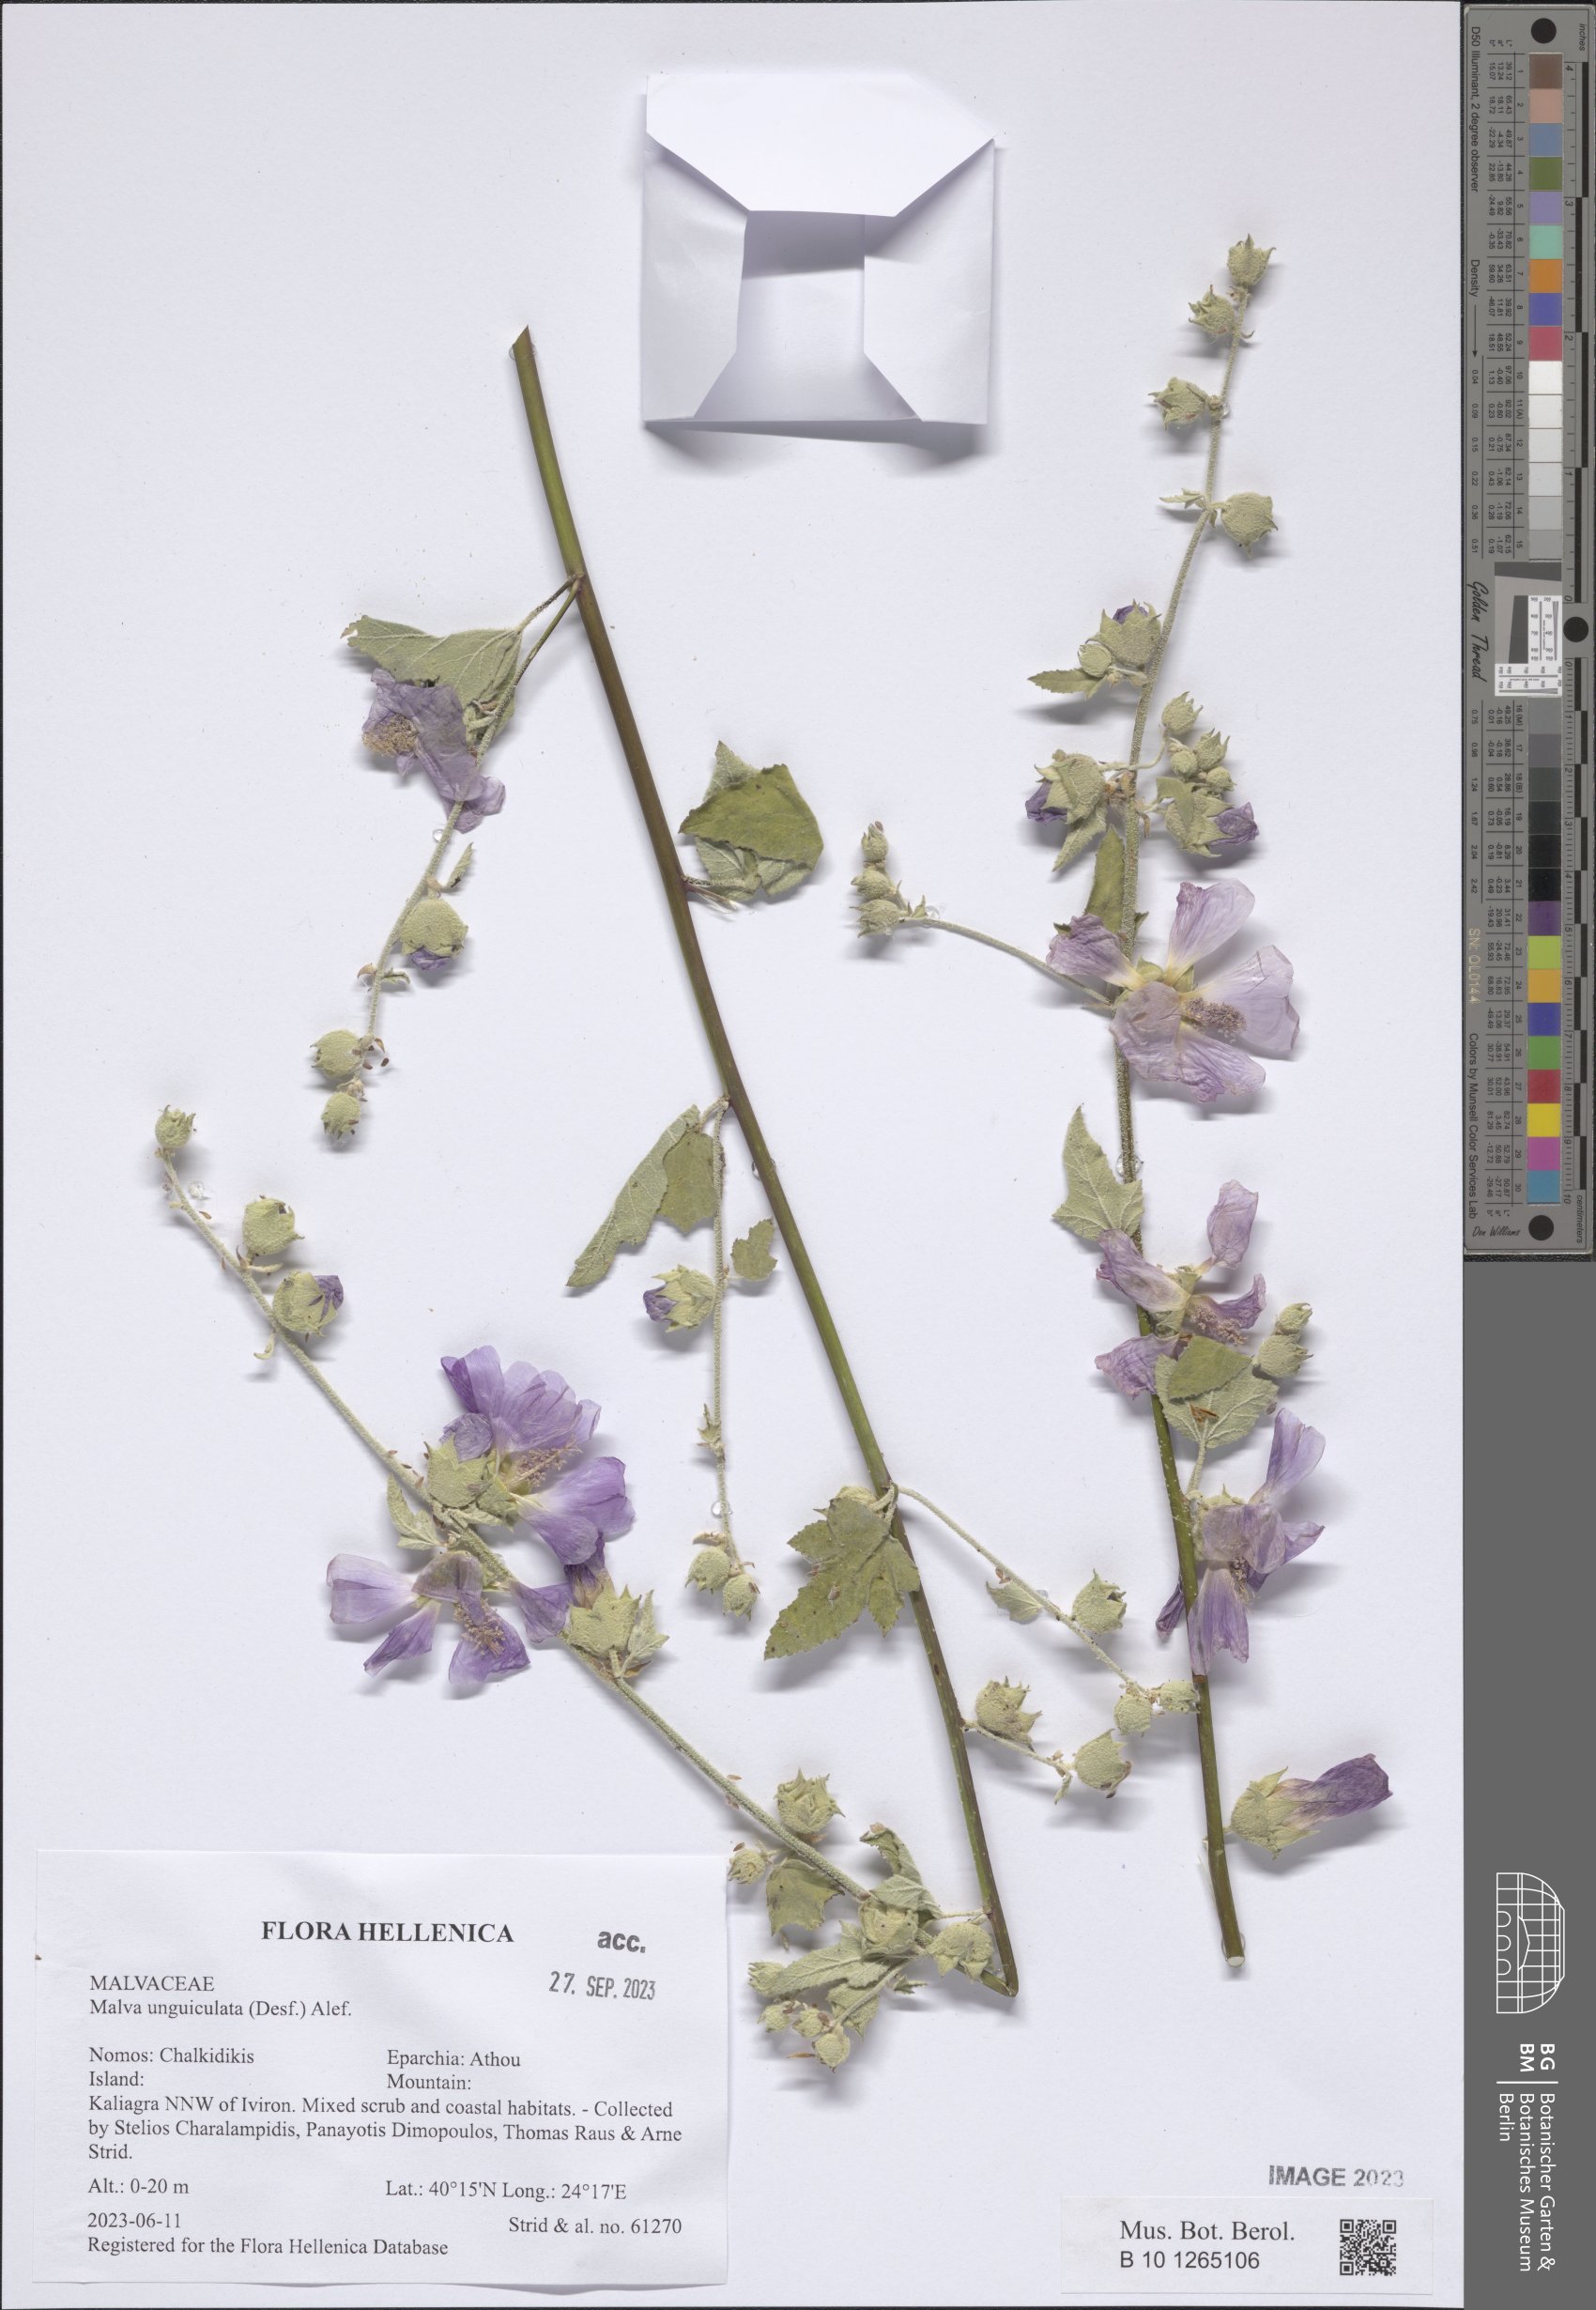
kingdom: Plantae
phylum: Tracheophyta
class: Magnoliopsida
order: Malvales
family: Malvaceae
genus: Malva
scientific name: Malva unguiculata
